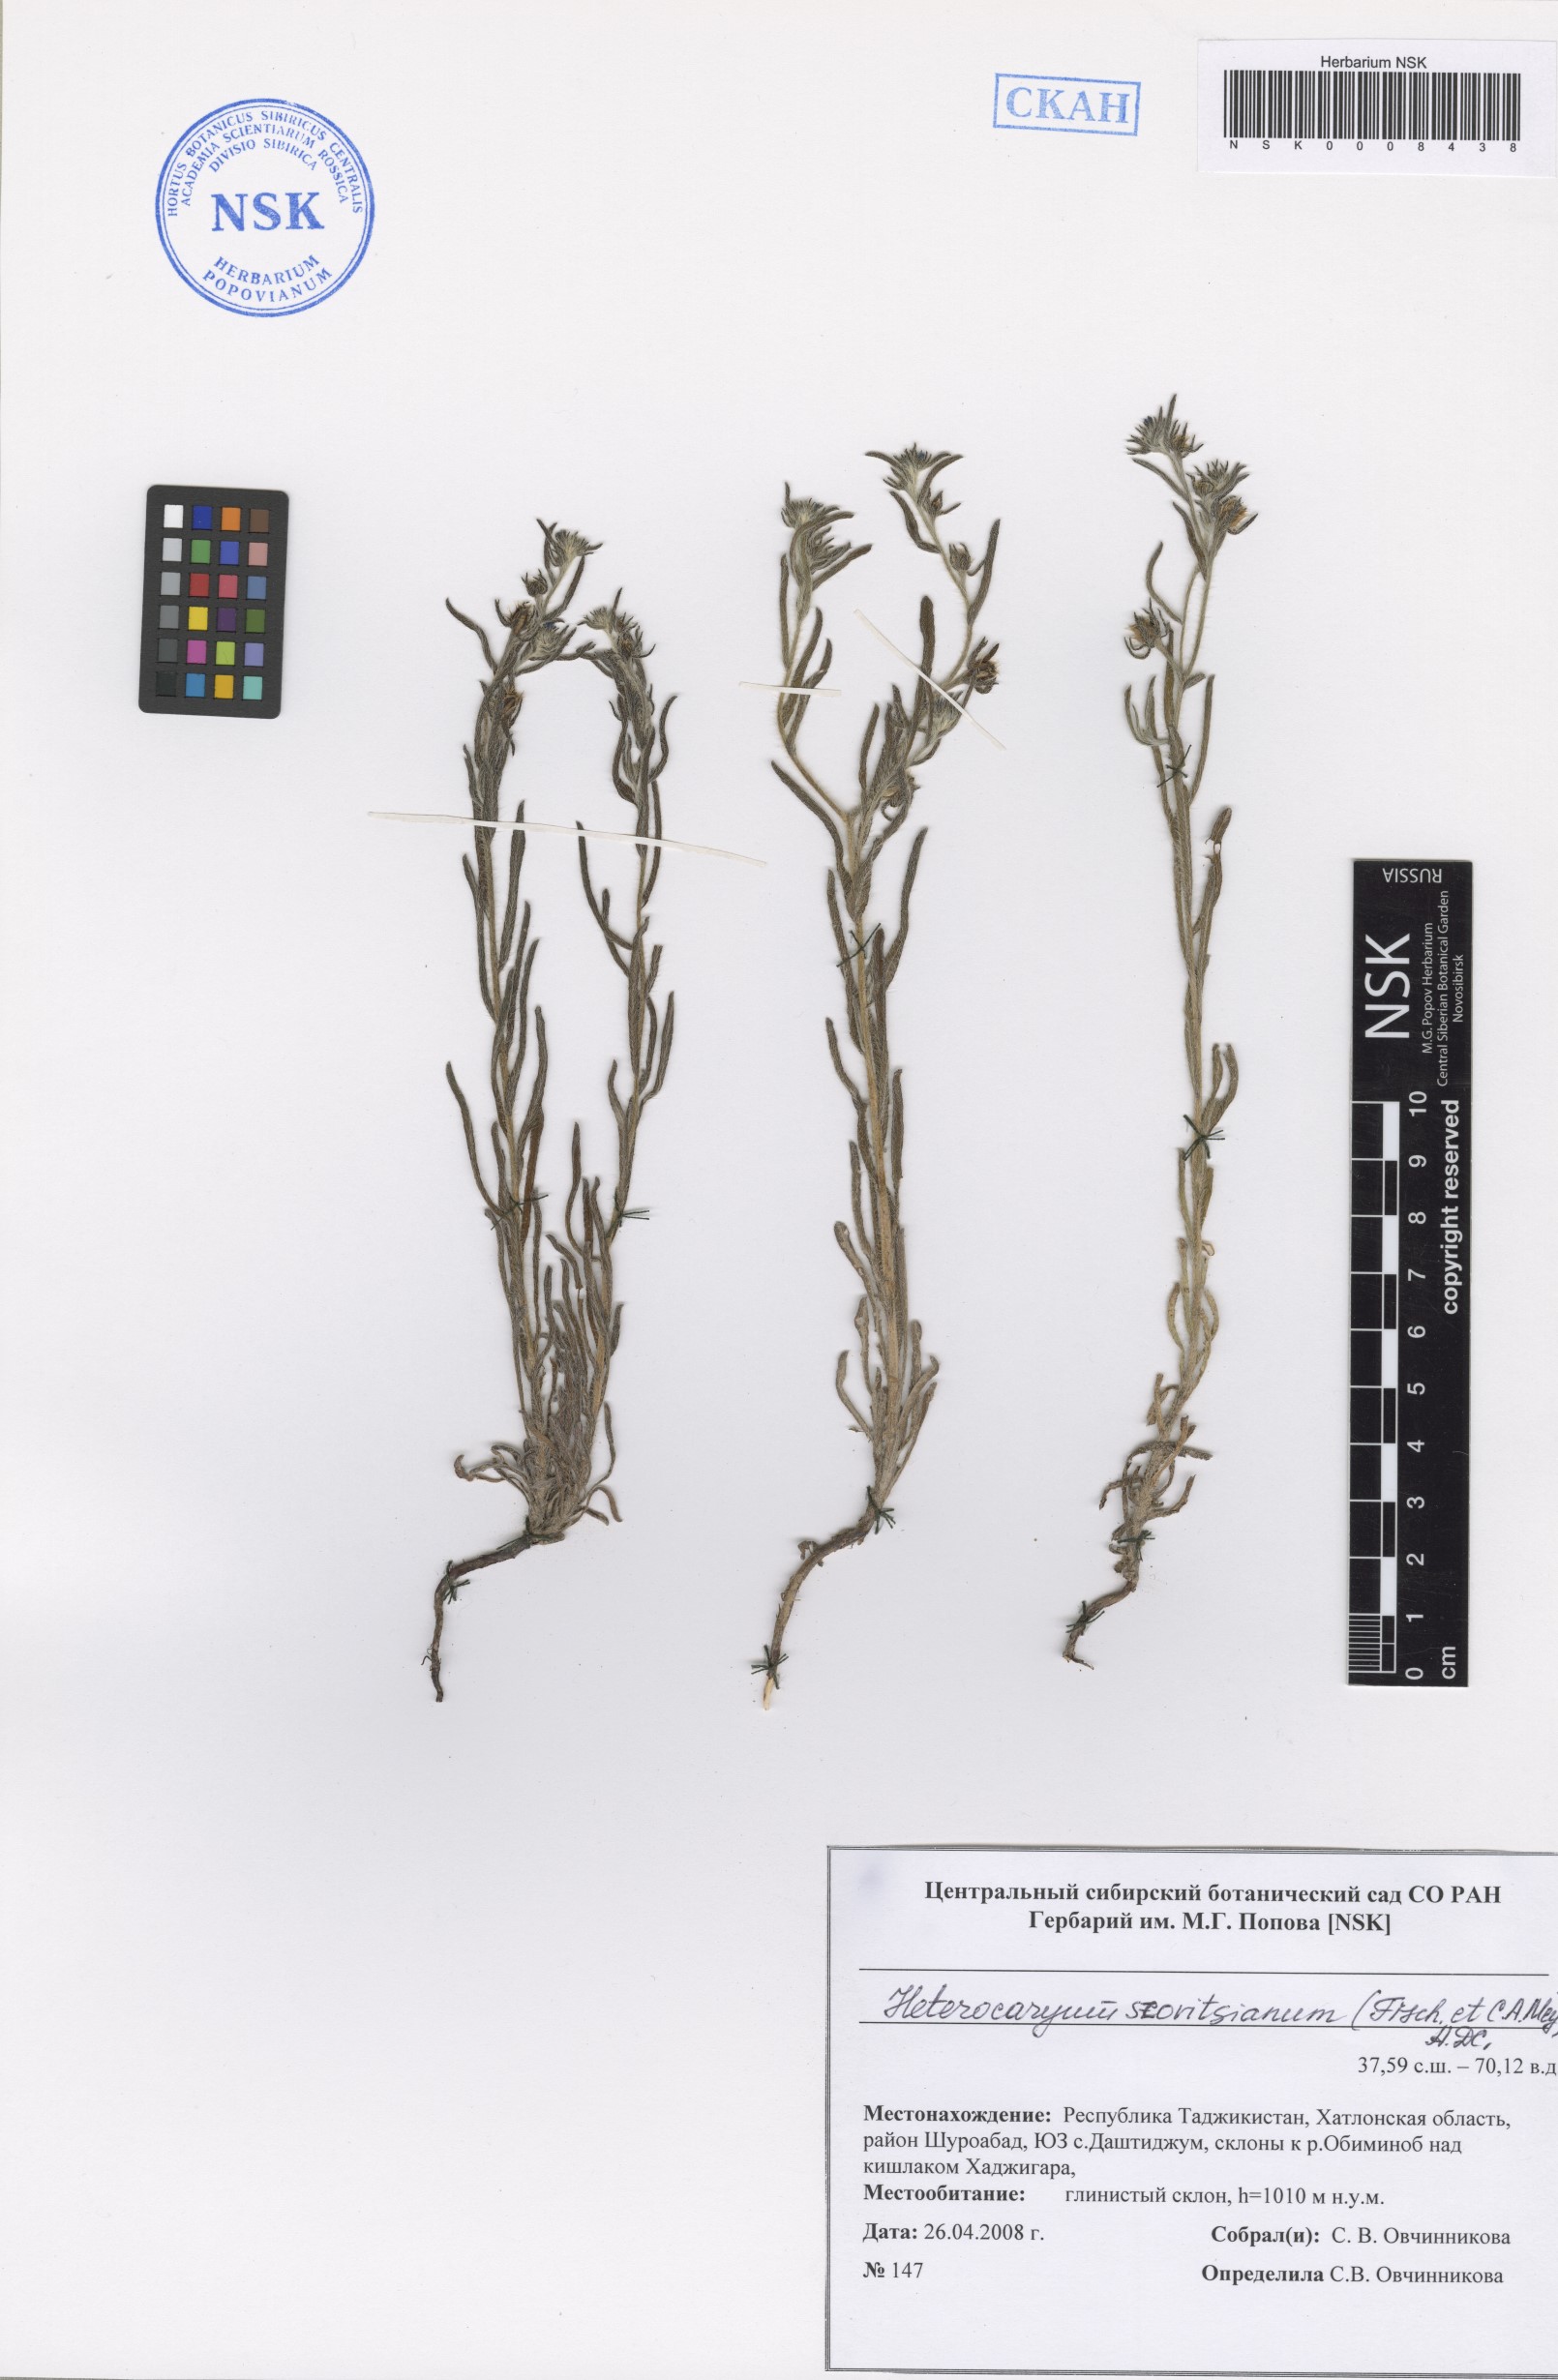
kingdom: Plantae
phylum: Tracheophyta
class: Magnoliopsida
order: Boraginales
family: Boraginaceae
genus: Pseudoheterocaryum
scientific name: Pseudoheterocaryum szovitsianum
